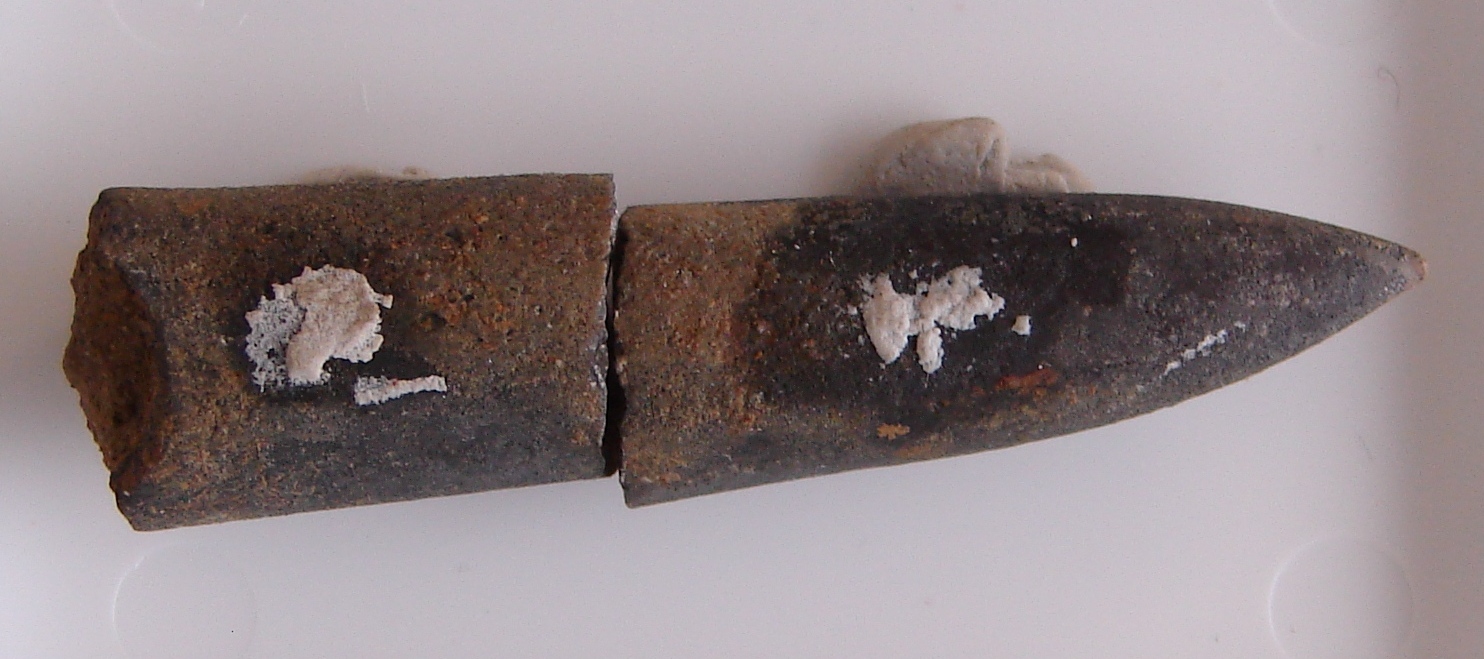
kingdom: Animalia
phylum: Mollusca
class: Cephalopoda
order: Belemnitida
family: Passaloteuthidae
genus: Brevibelus
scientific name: Brevibelus breviformis
